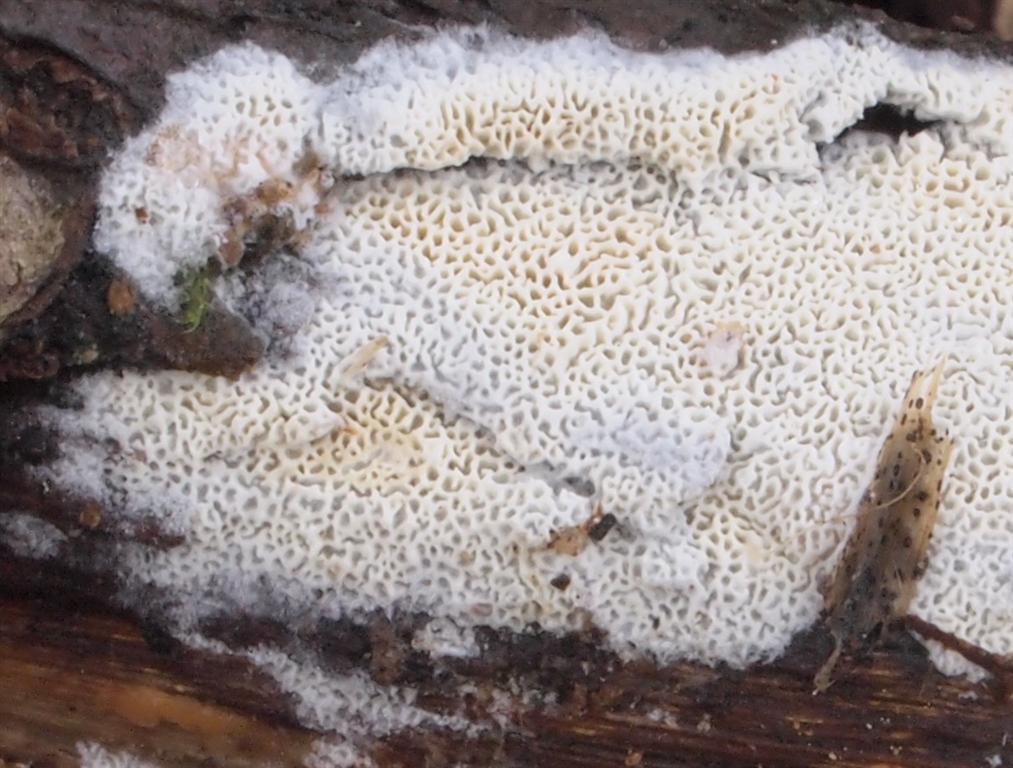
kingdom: Fungi
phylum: Basidiomycota
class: Agaricomycetes
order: Hymenochaetales
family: Schizoporaceae
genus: Xylodon
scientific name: Xylodon subtropicus
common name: labyrint-tandsvamp
